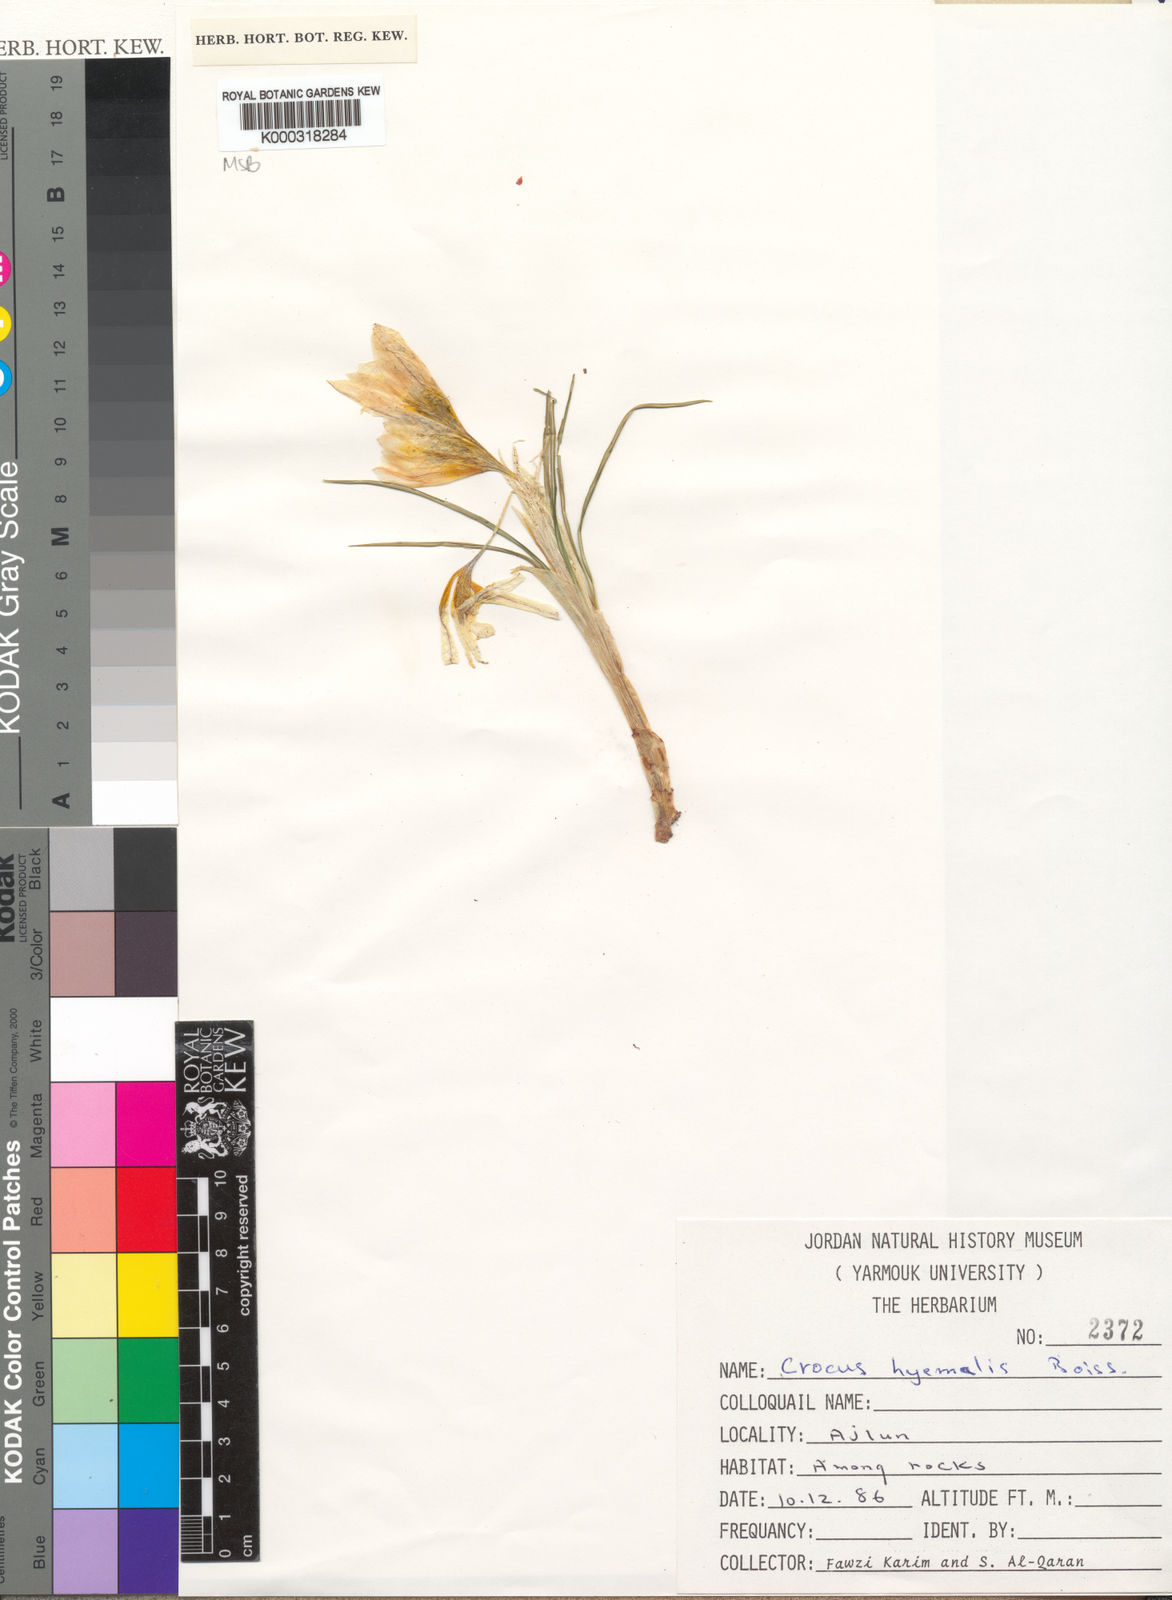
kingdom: Plantae
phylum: Tracheophyta
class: Liliopsida
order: Asparagales
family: Iridaceae
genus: Crocus
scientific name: Crocus hyemalis
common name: Winter crocus
